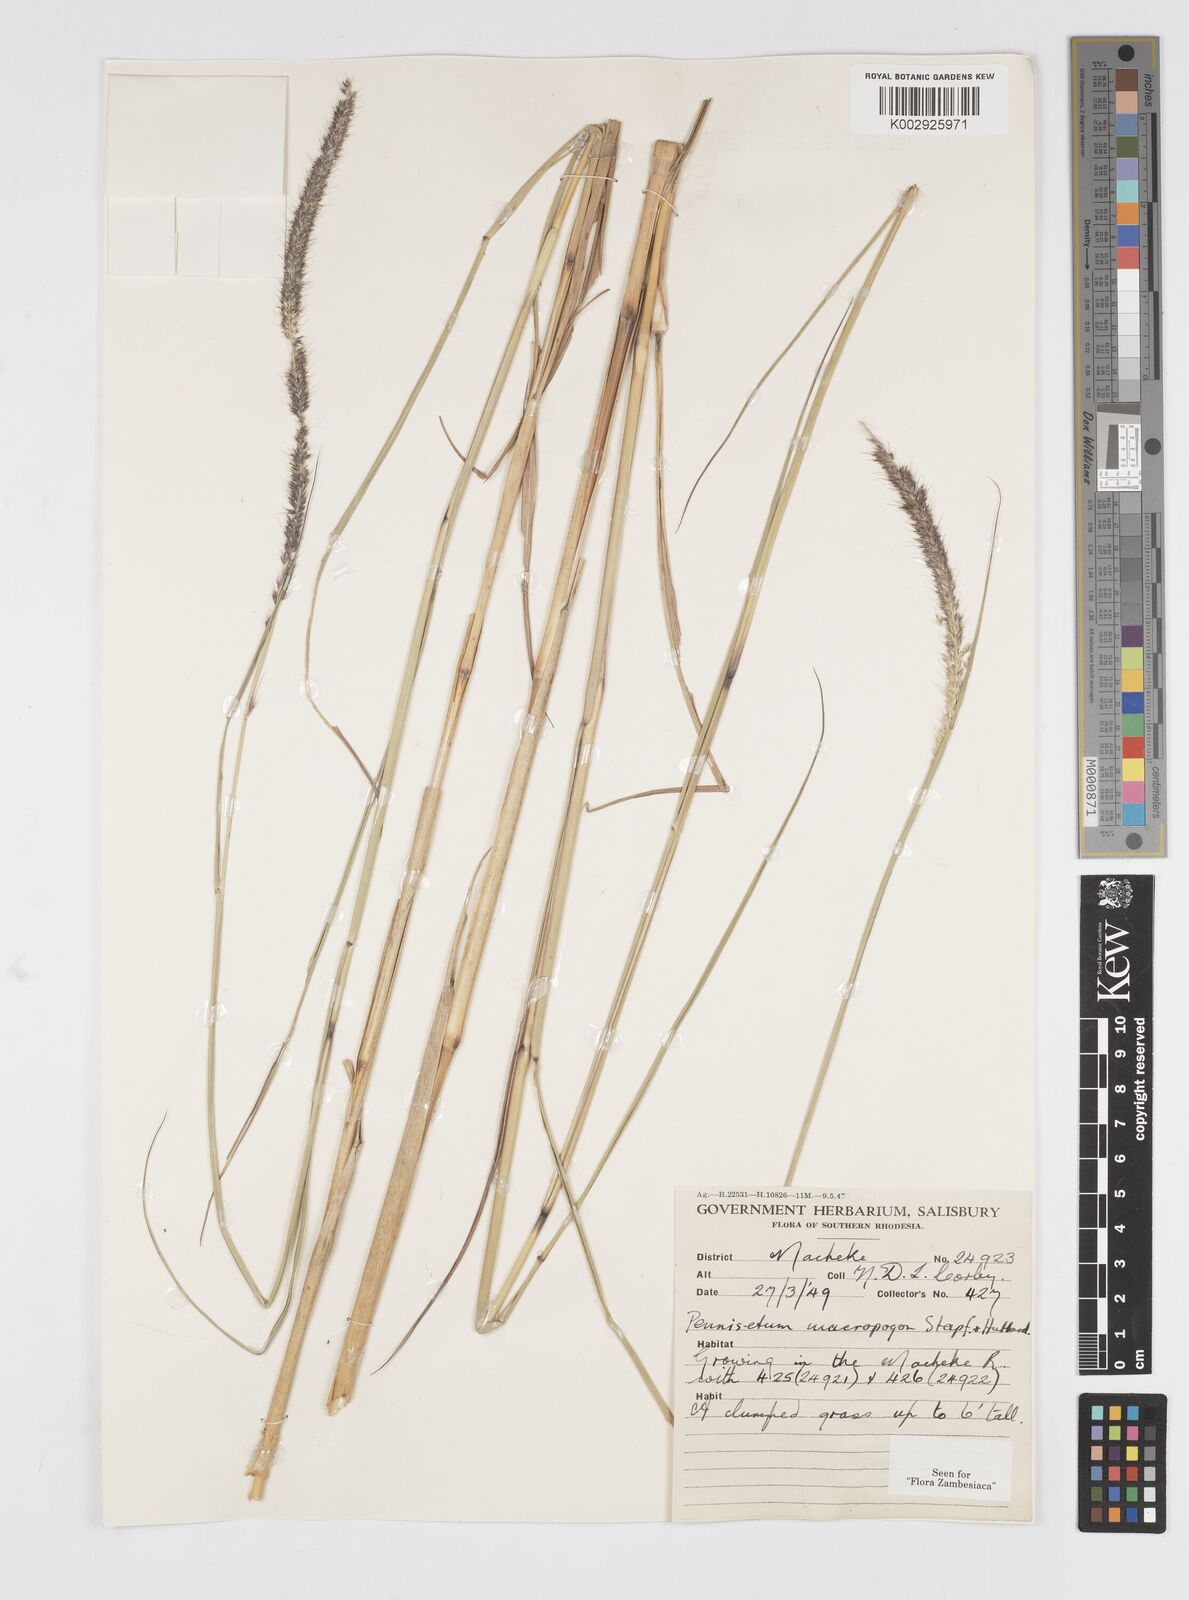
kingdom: Plantae
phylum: Tracheophyta
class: Liliopsida
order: Poales
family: Poaceae
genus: Cenchrus
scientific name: Cenchrus caudatus
